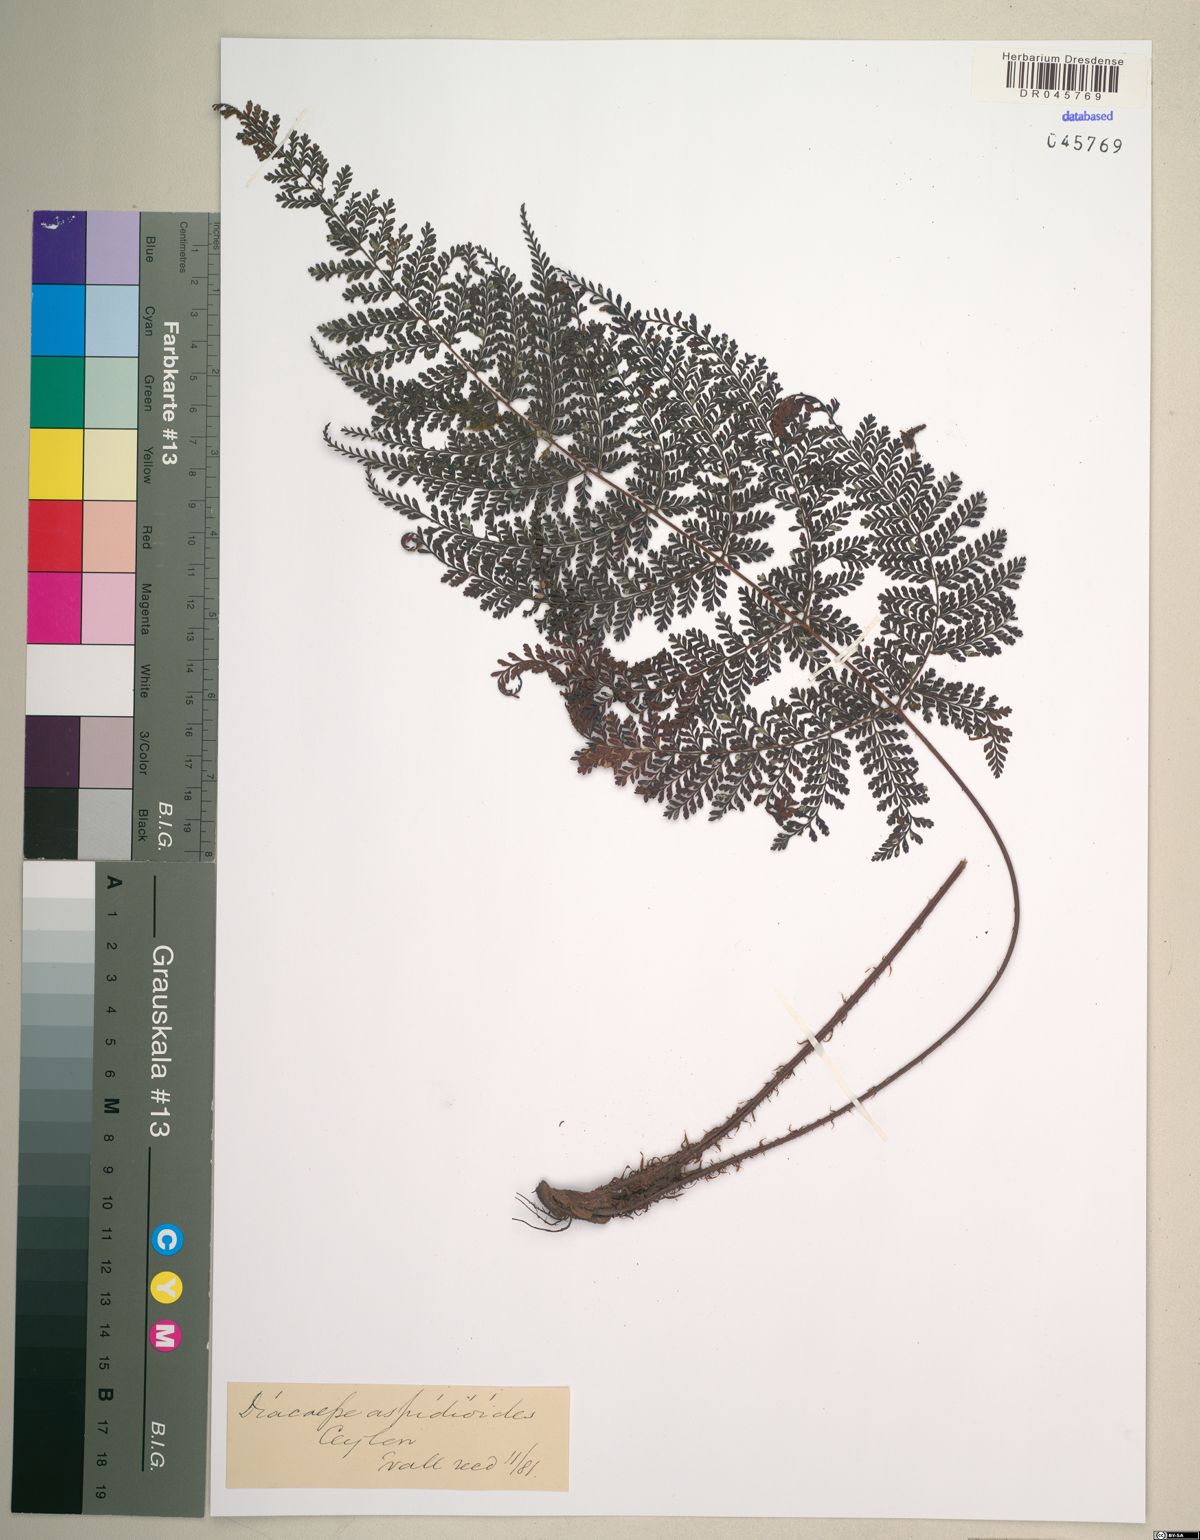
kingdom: Plantae
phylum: Tracheophyta
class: Polypodiopsida
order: Polypodiales
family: Dryopteridaceae
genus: Dryopteris
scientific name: Dryopteris pseudocaenopteris
